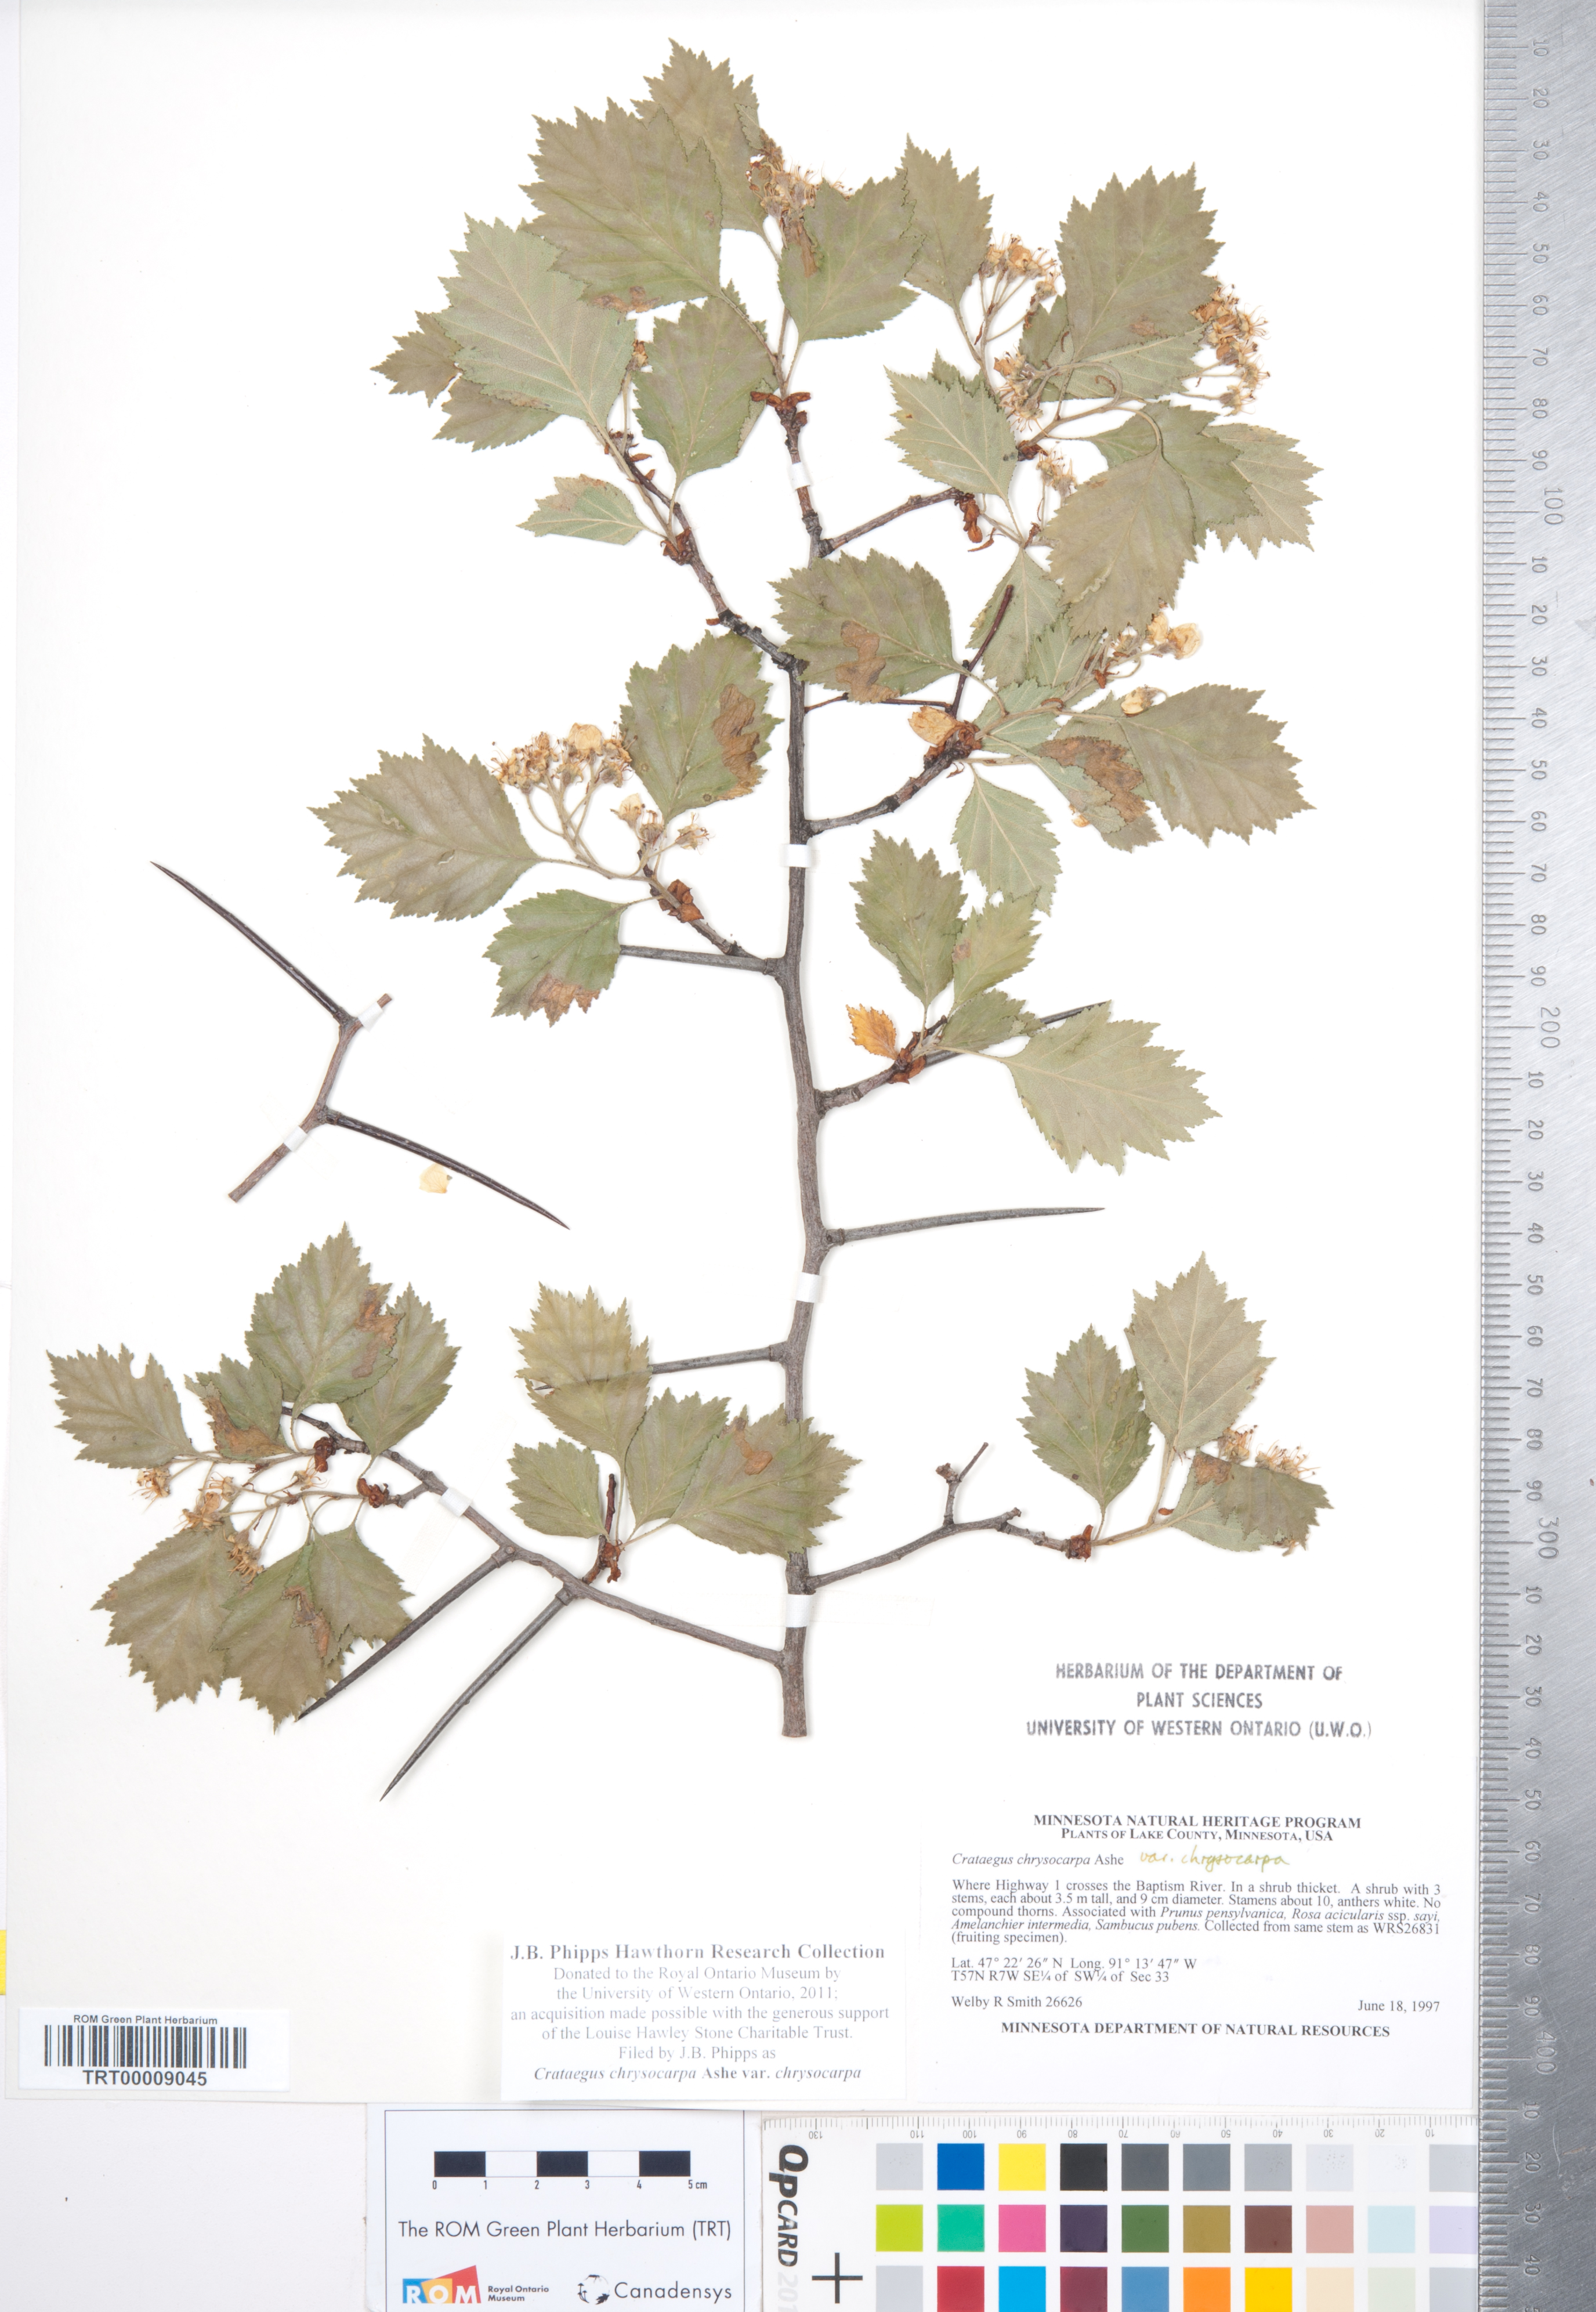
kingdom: Plantae
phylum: Tracheophyta
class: Magnoliopsida
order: Rosales
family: Rosaceae
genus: Crataegus
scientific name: Crataegus chrysocarpa
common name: Fire-berry hawthorn
